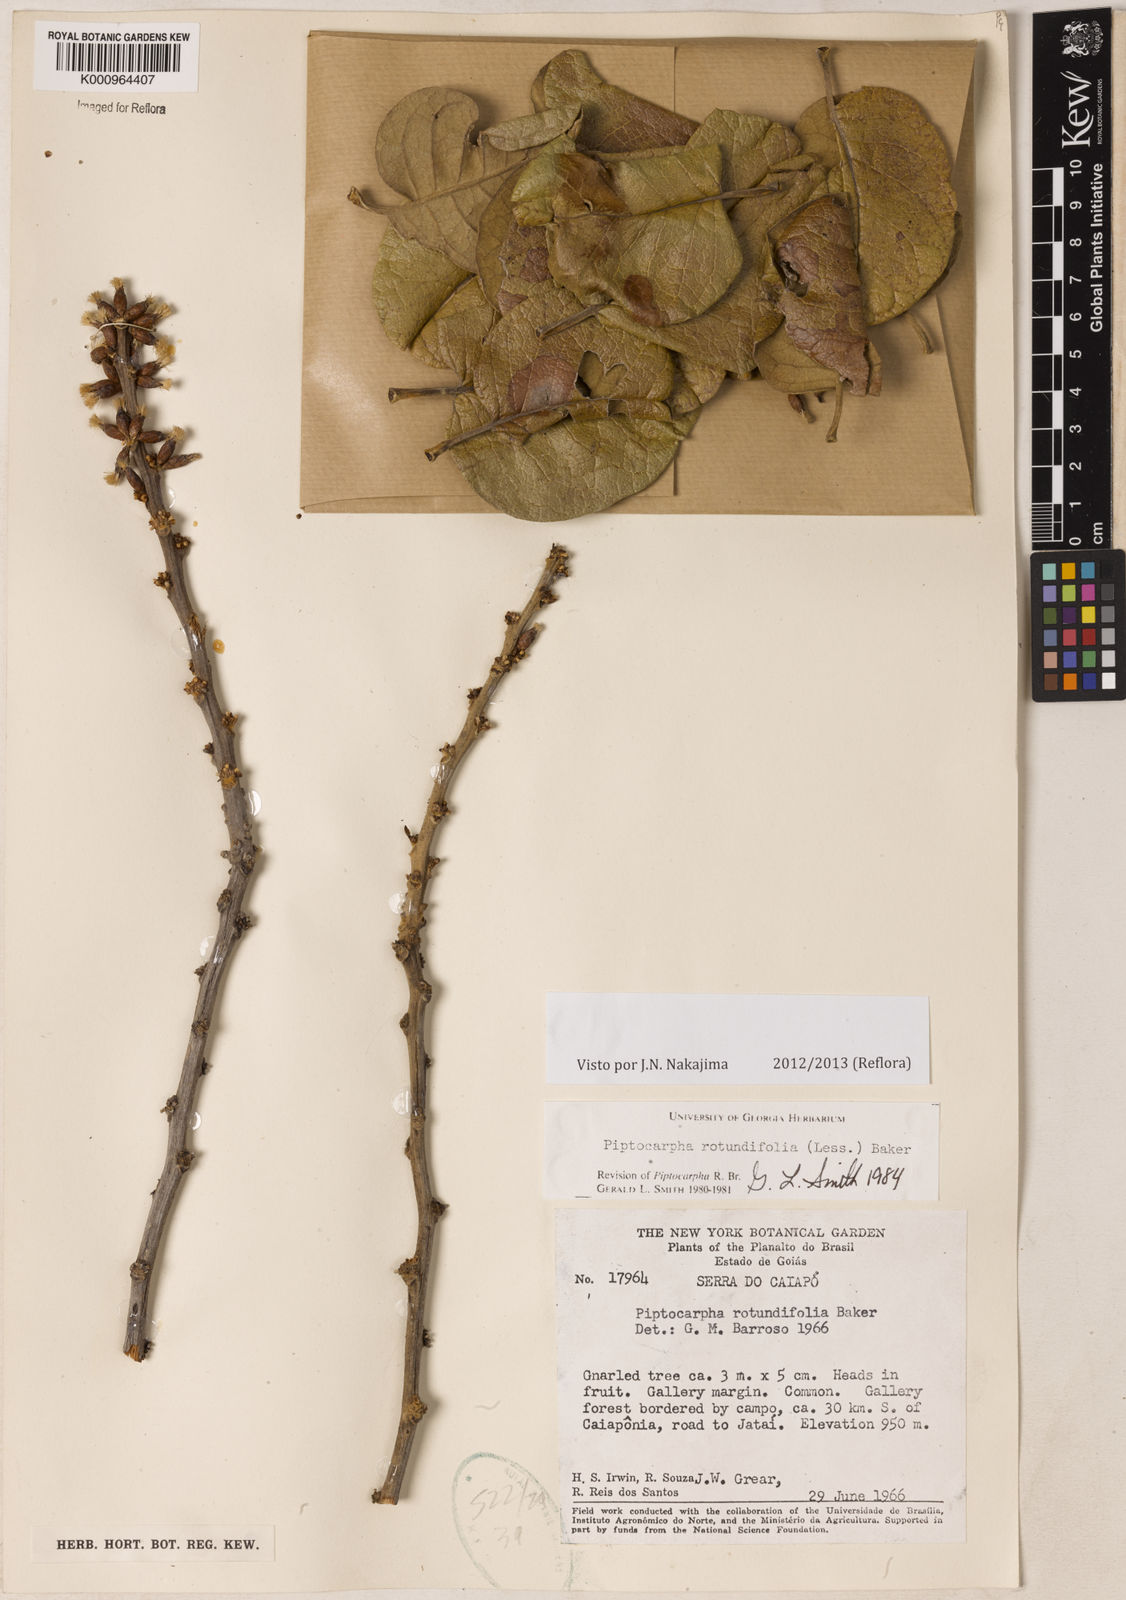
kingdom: Plantae
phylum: Tracheophyta
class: Magnoliopsida
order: Asterales
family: Asteraceae
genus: Piptocarpha
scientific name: Piptocarpha rotundifolia
